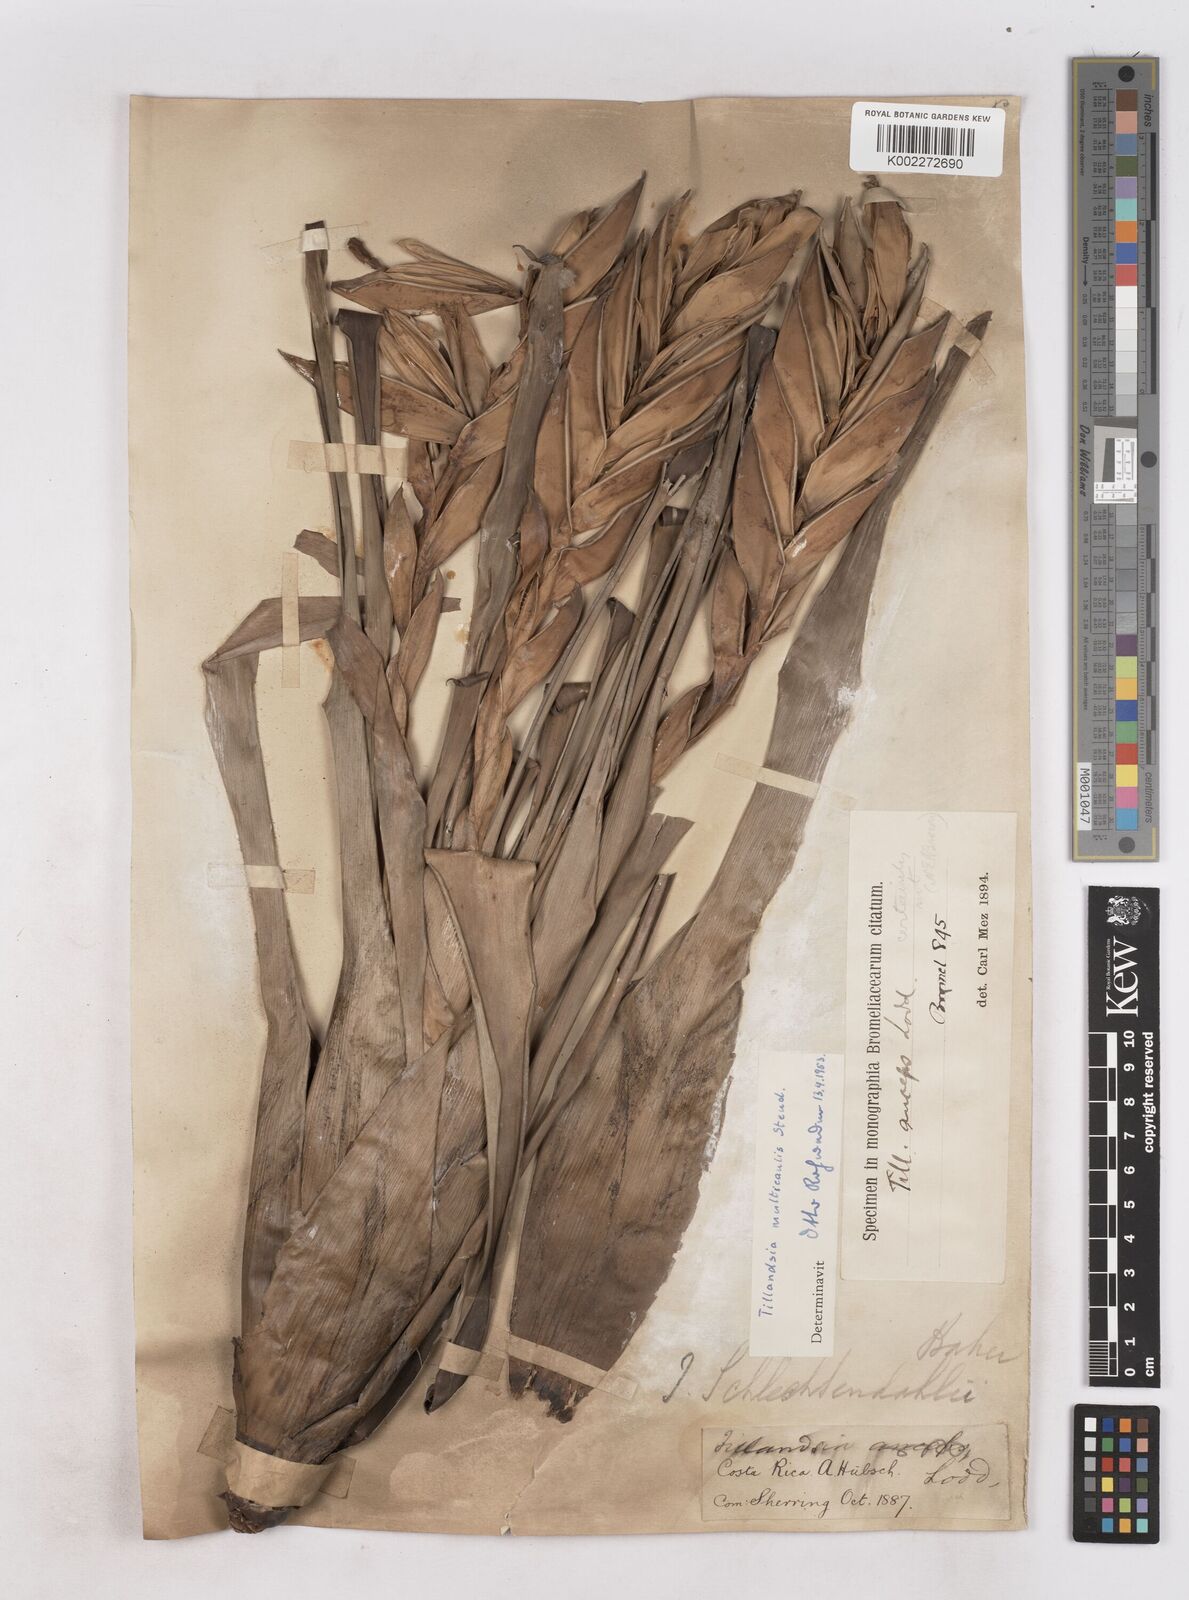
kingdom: Plantae
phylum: Tracheophyta
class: Liliopsida
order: Poales
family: Bromeliaceae
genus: Tillandsia
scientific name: Tillandsia multicaulis
